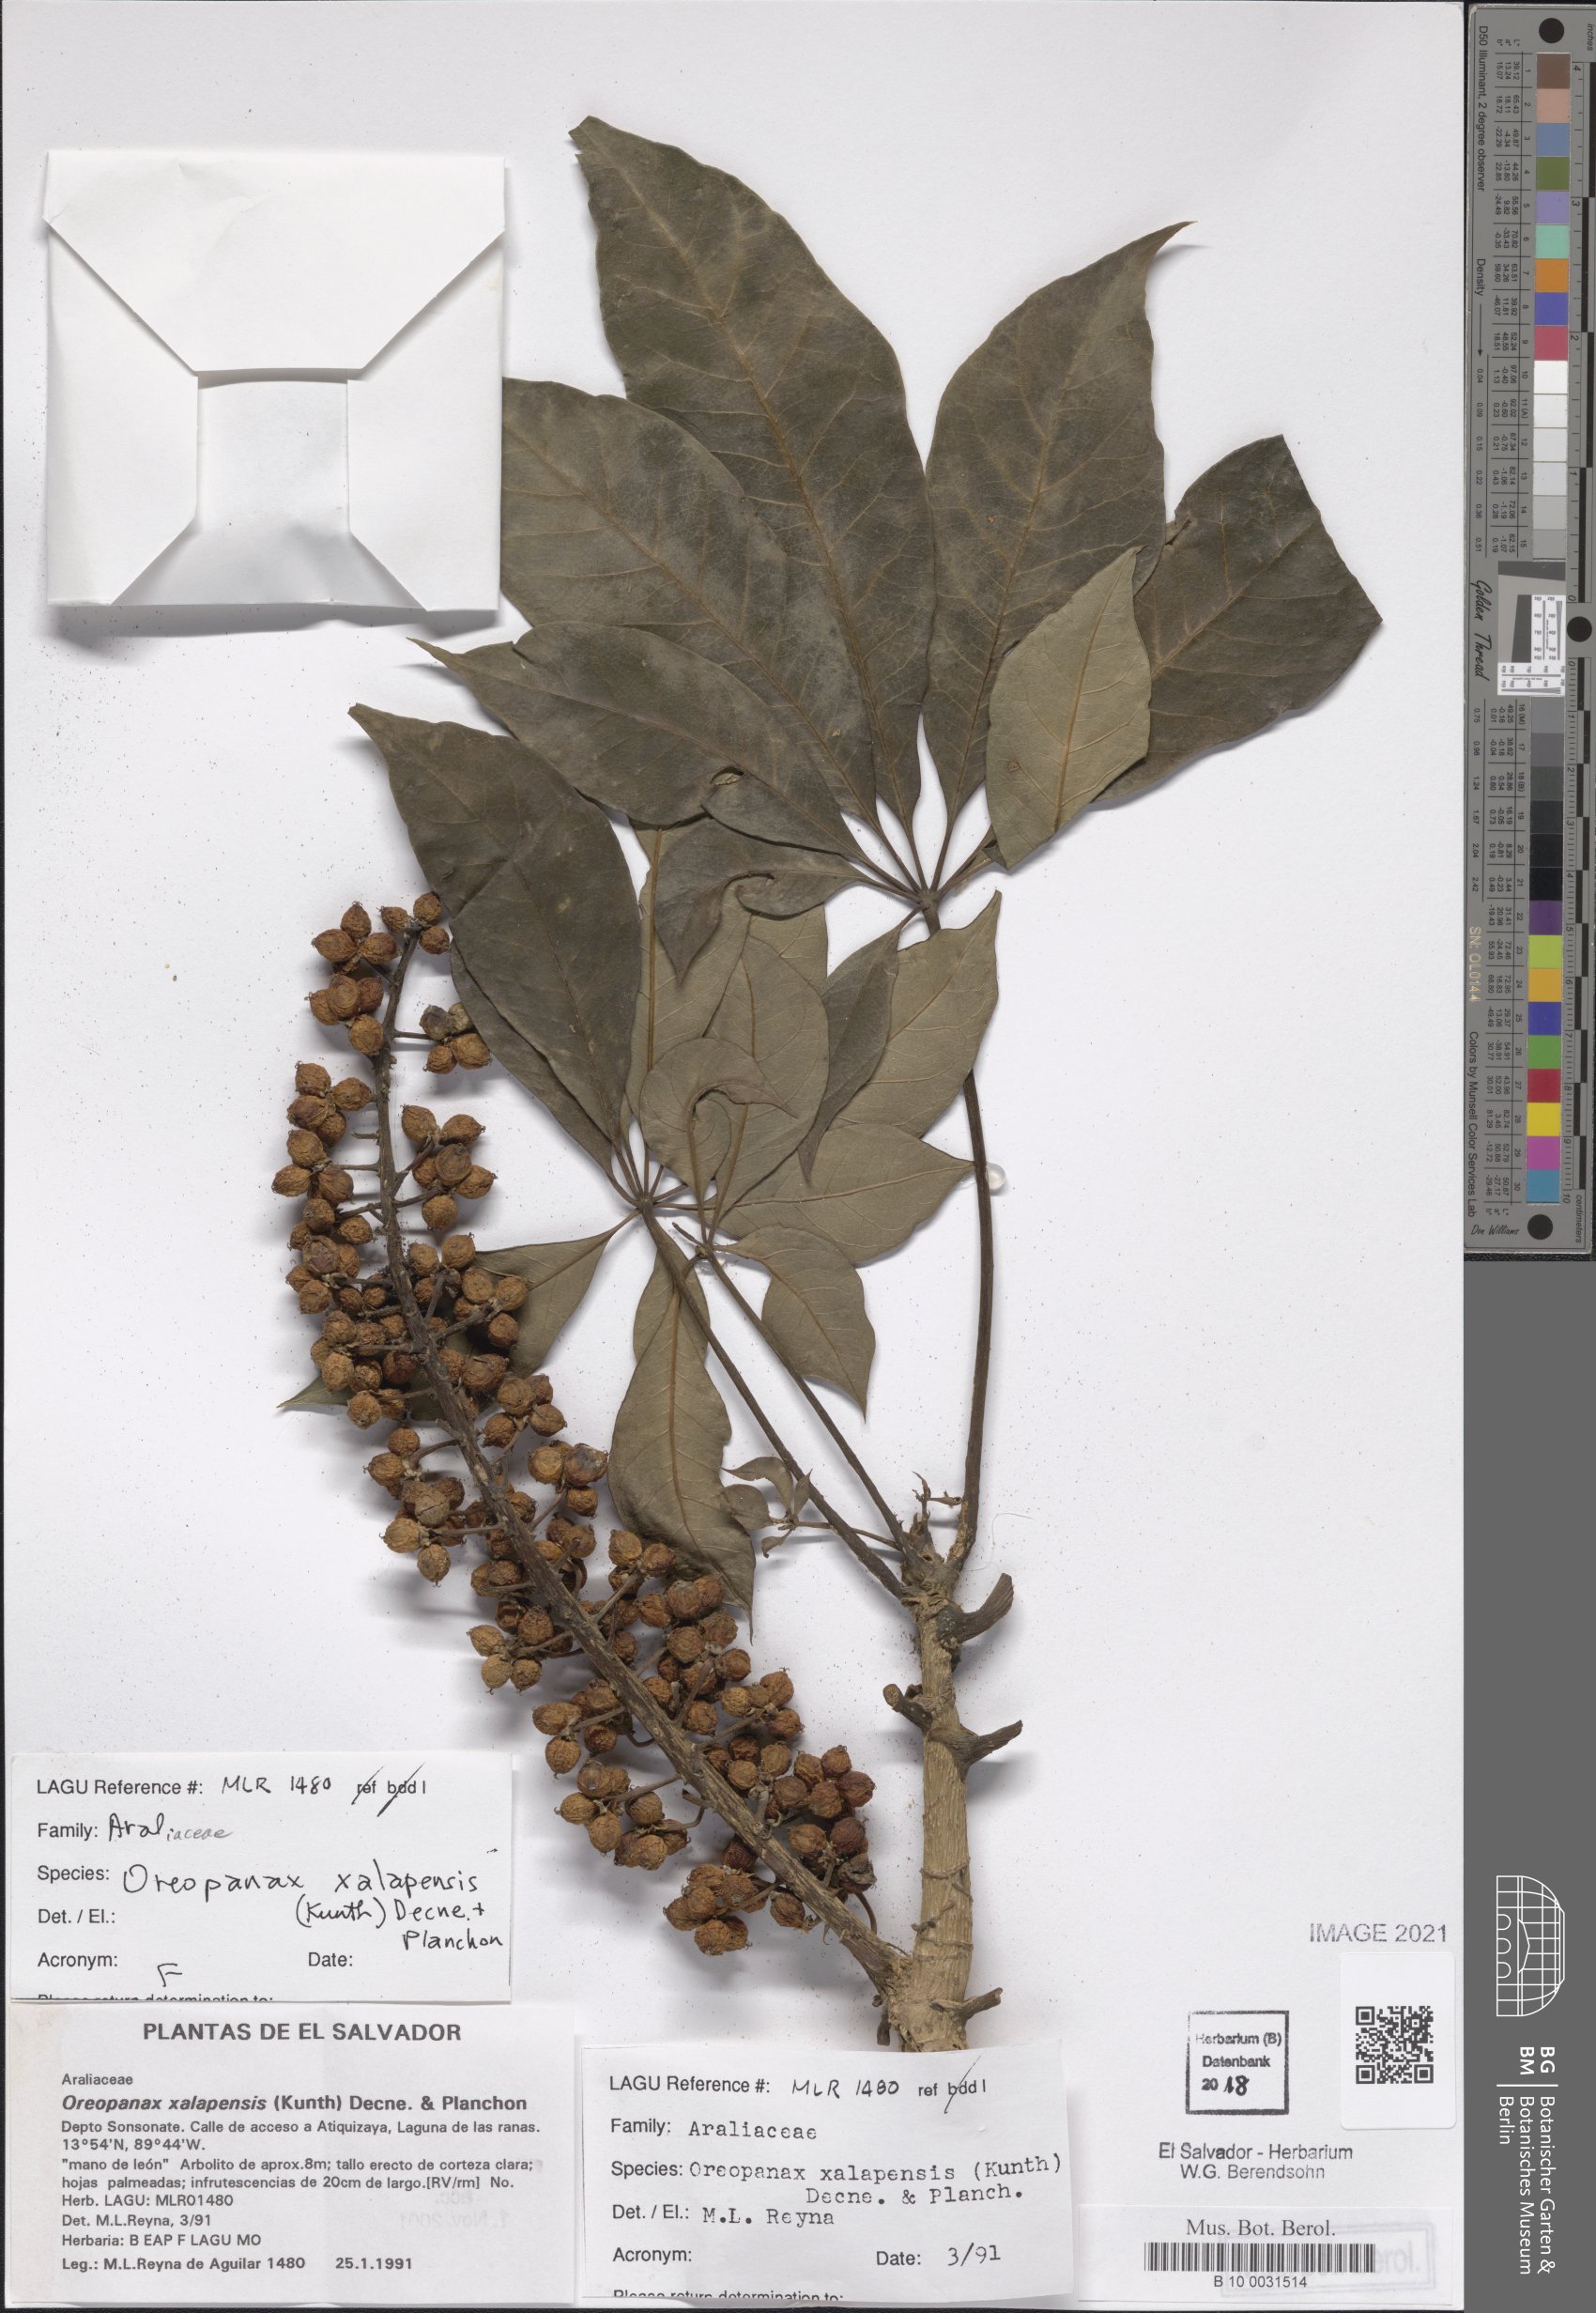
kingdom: Plantae
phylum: Tracheophyta
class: Magnoliopsida
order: Apiales
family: Araliaceae
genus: Oreopanax
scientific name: Oreopanax xalapensis
